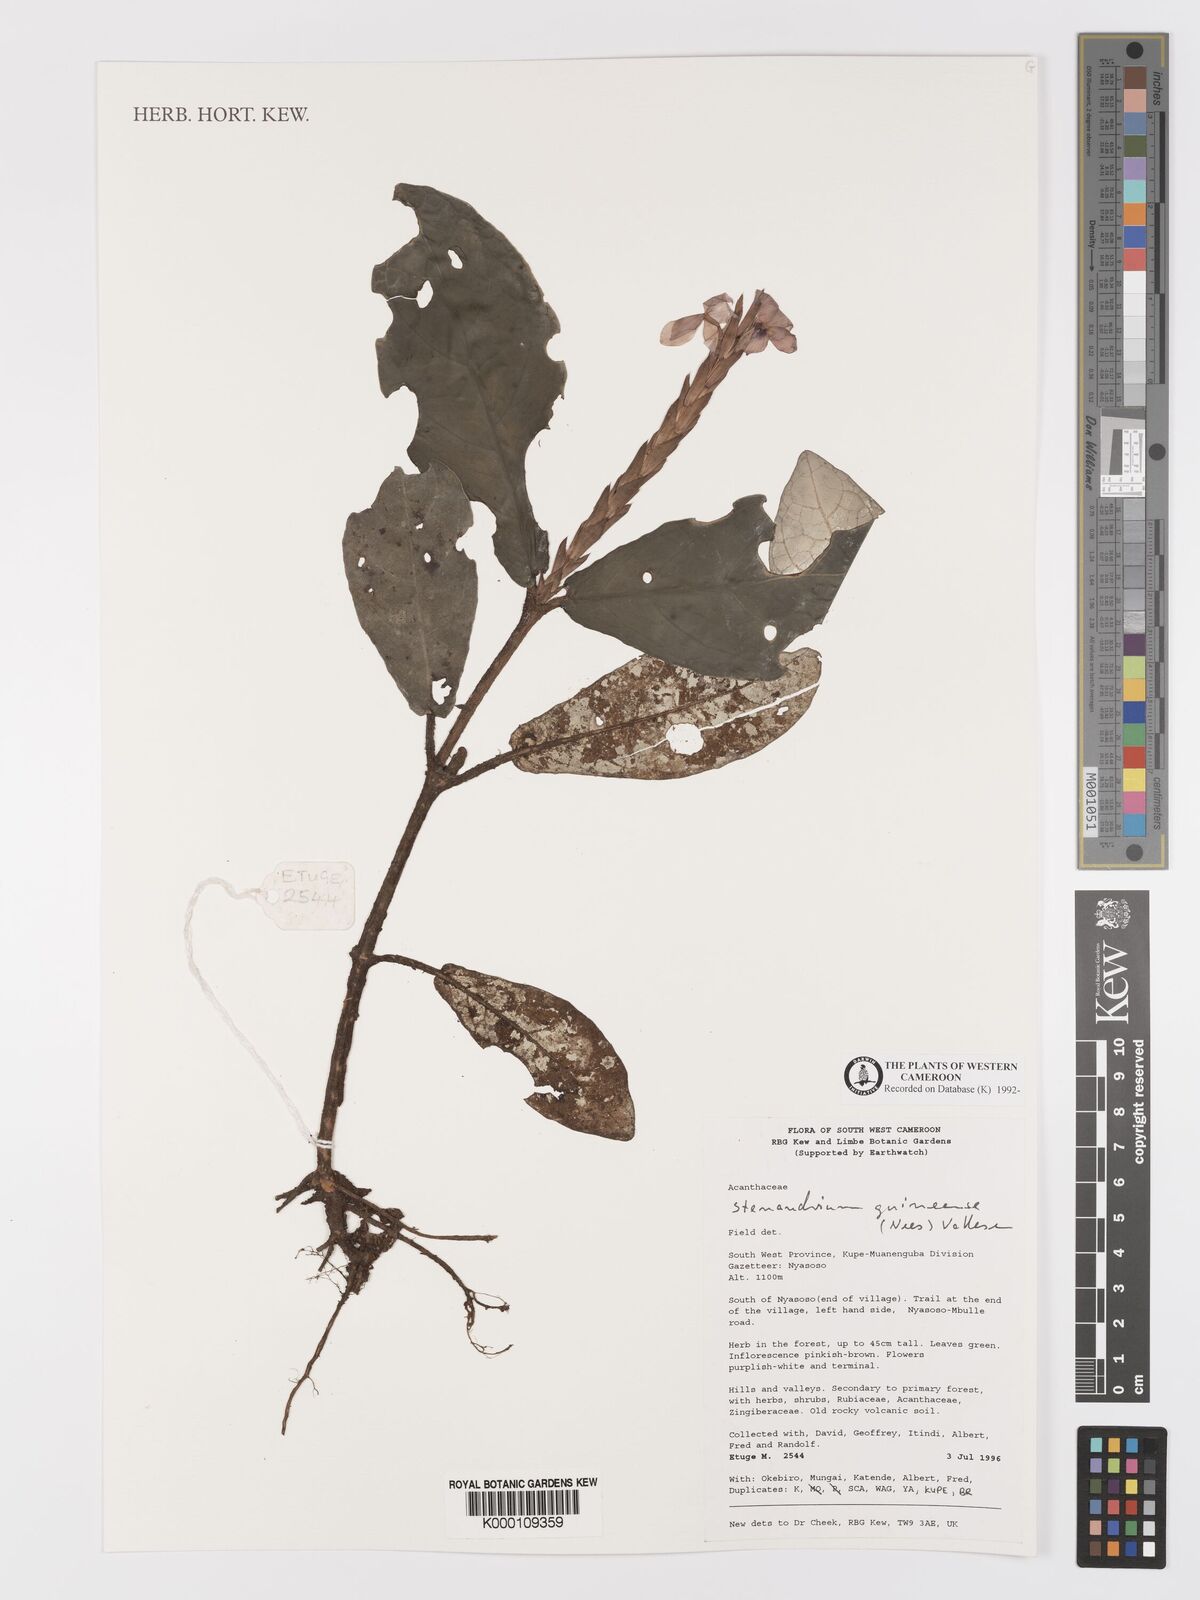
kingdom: Plantae
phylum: Tracheophyta
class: Magnoliopsida
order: Lamiales
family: Acanthaceae
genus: Stenandriopsis
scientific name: Stenandriopsis guineensis
